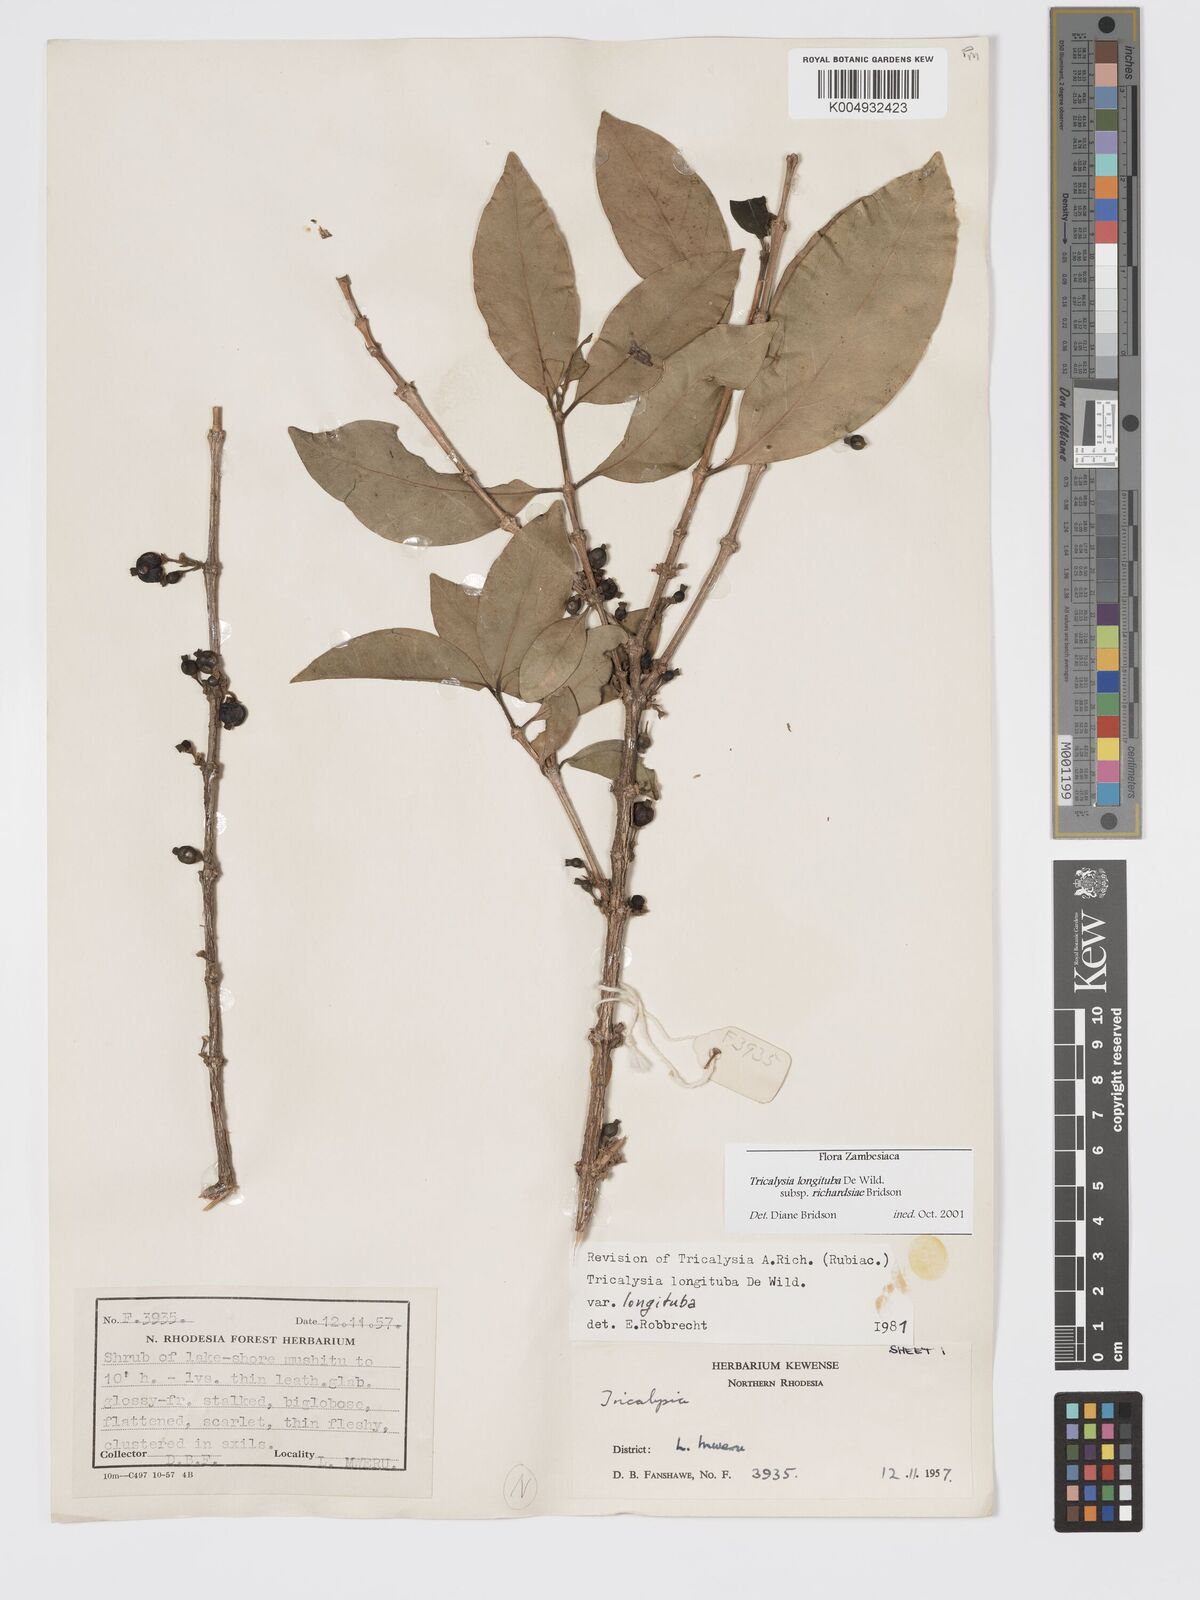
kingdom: Plantae
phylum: Tracheophyta
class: Magnoliopsida
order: Gentianales
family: Rubiaceae
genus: Tricalysia
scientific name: Tricalysia longituba
